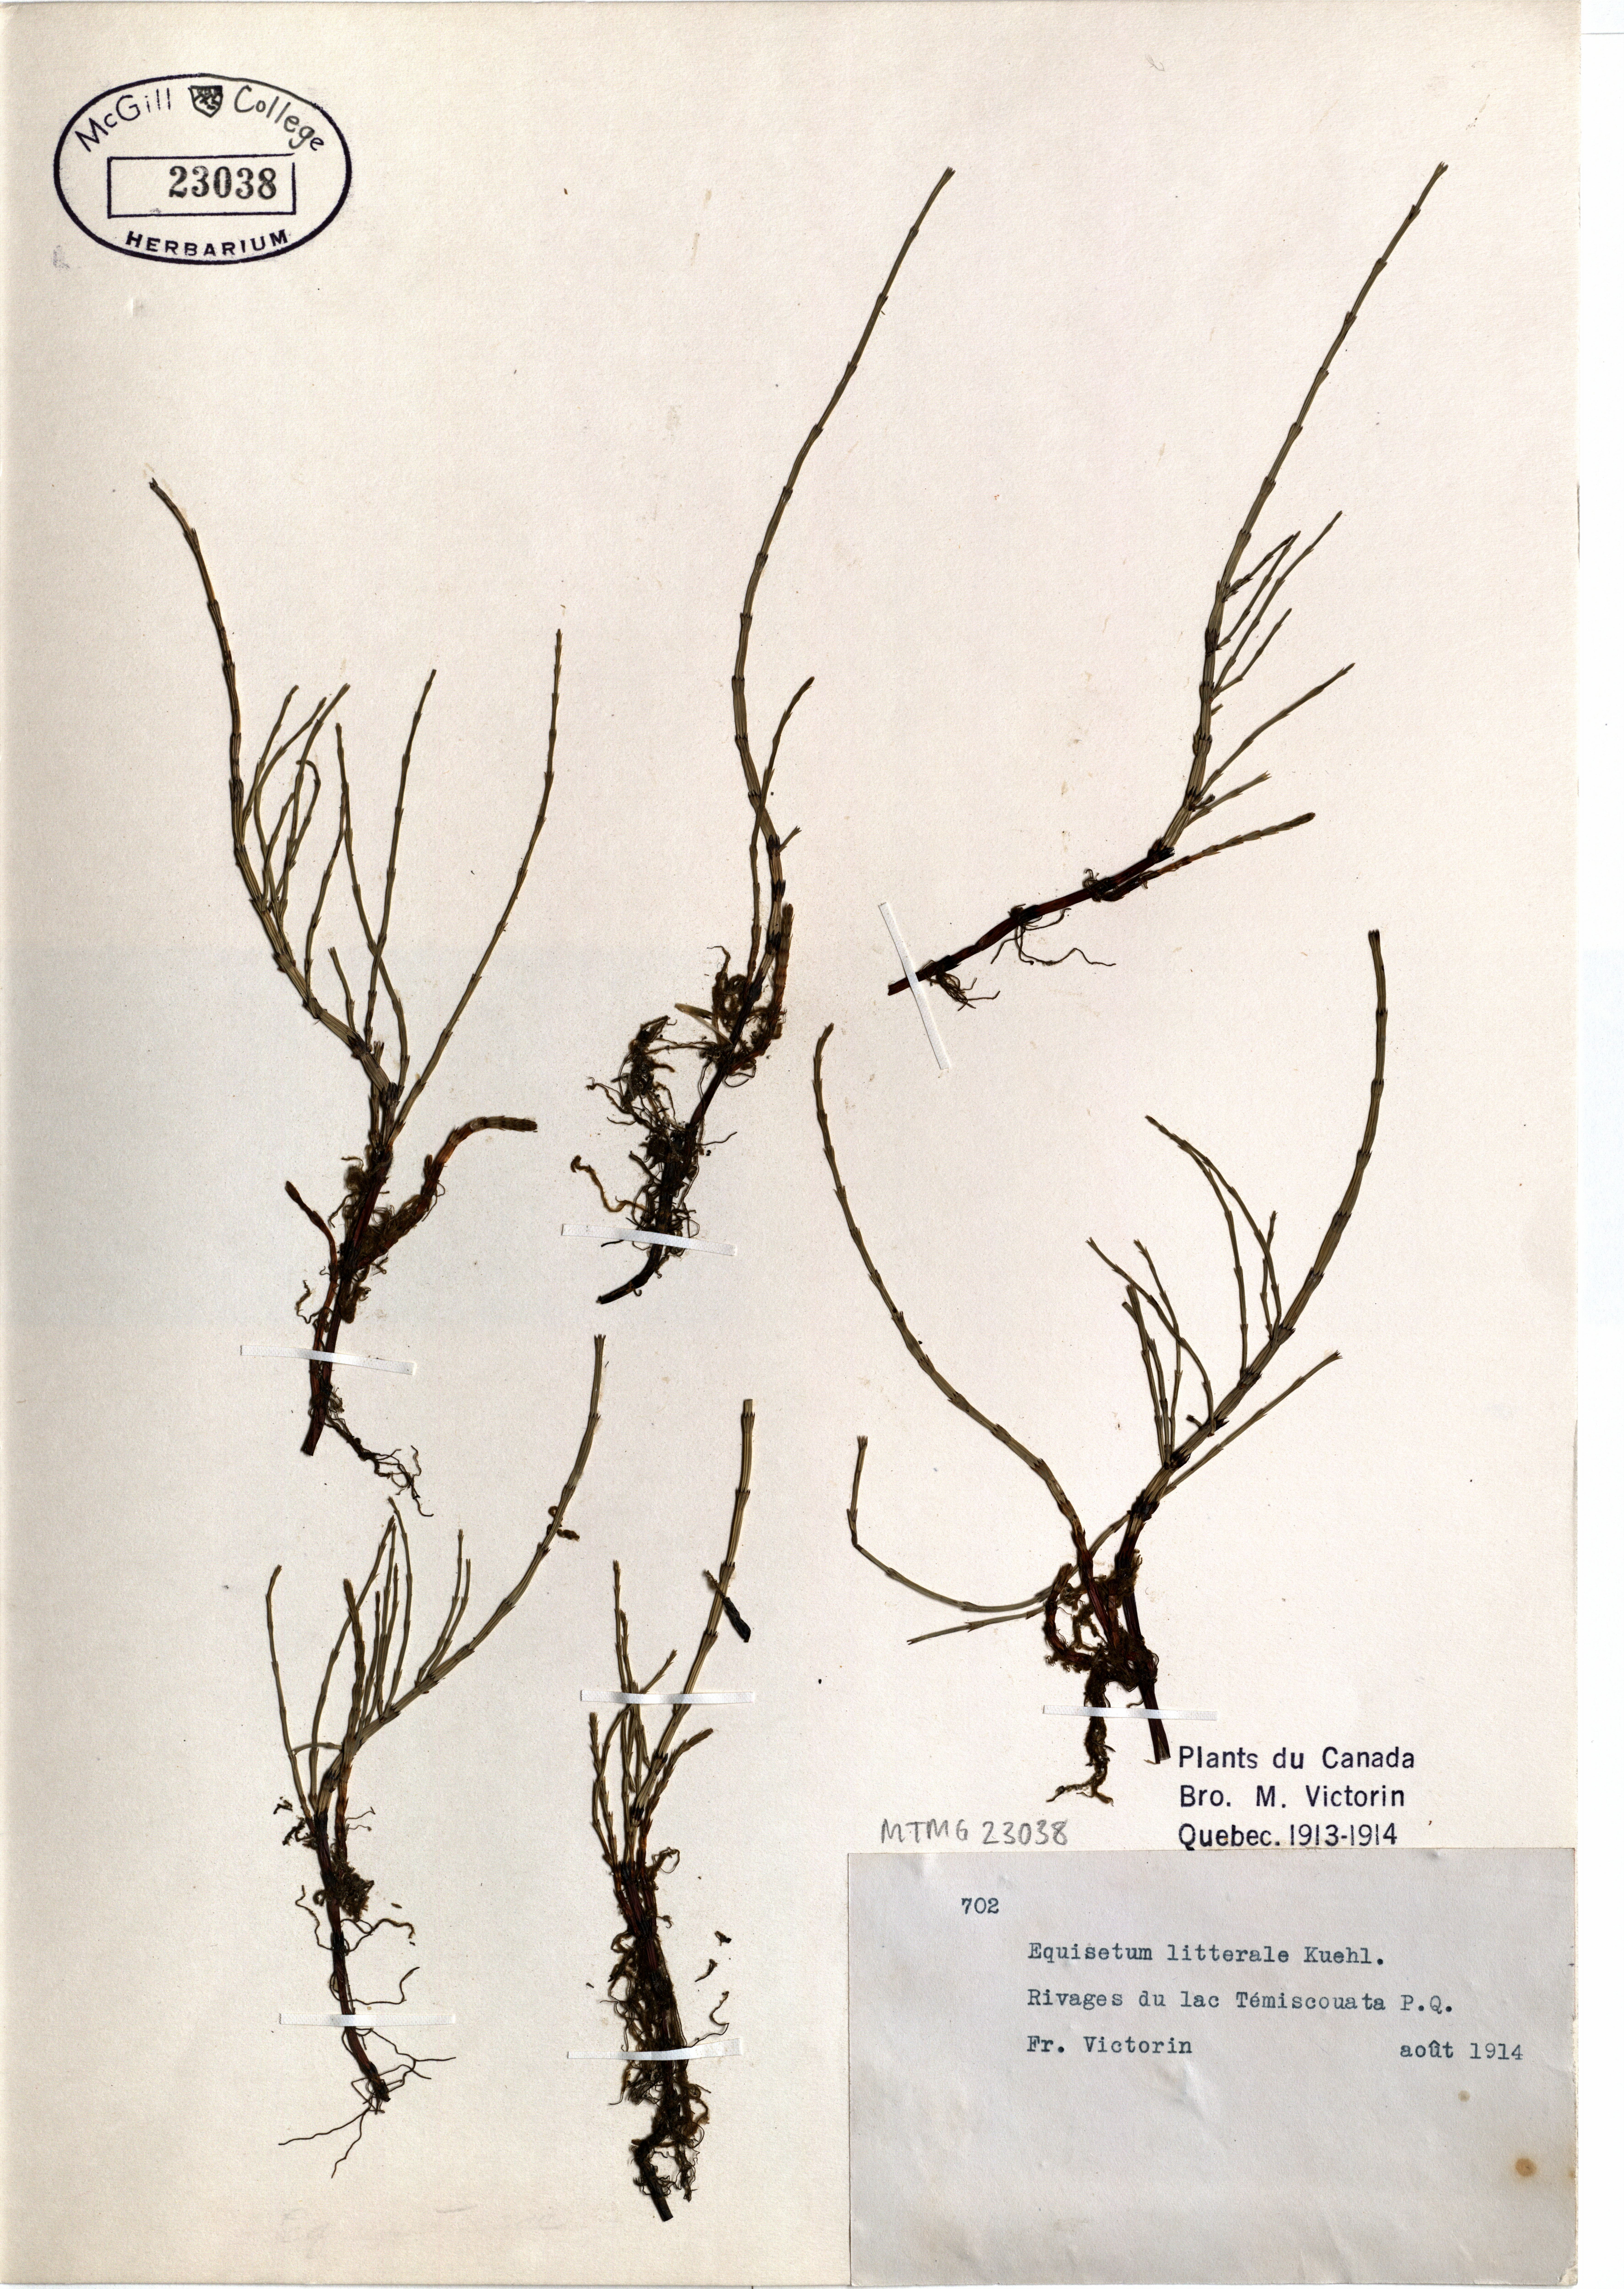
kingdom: Plantae
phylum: Tracheophyta
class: Polypodiopsida
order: Equisetales
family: Equisetaceae
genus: Equisetum
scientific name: Equisetum litorale
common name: Littoral horsetail
